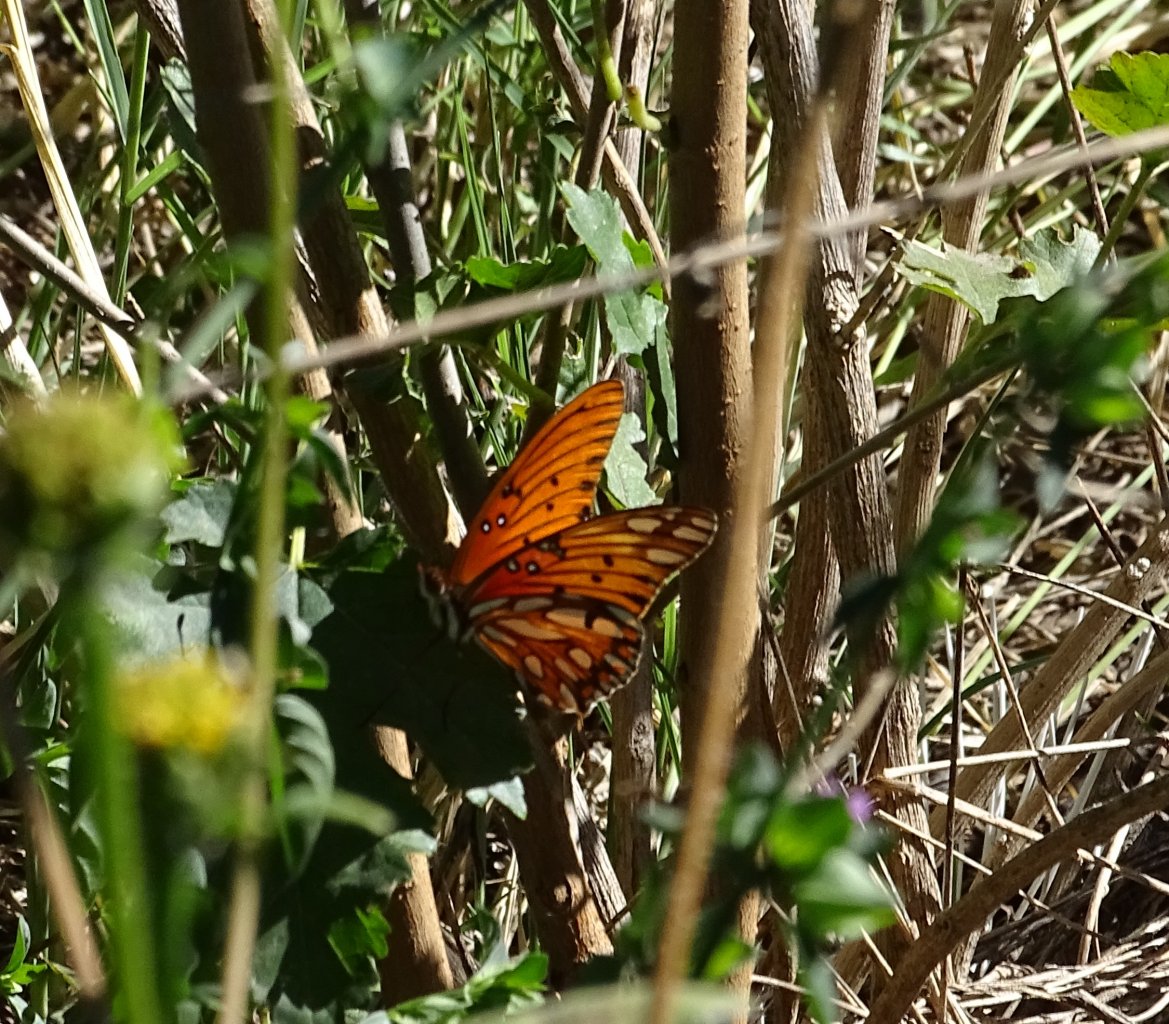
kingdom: Animalia
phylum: Arthropoda
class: Insecta
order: Lepidoptera
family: Nymphalidae
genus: Dione
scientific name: Dione vanillae
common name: Gulf Fritillary
